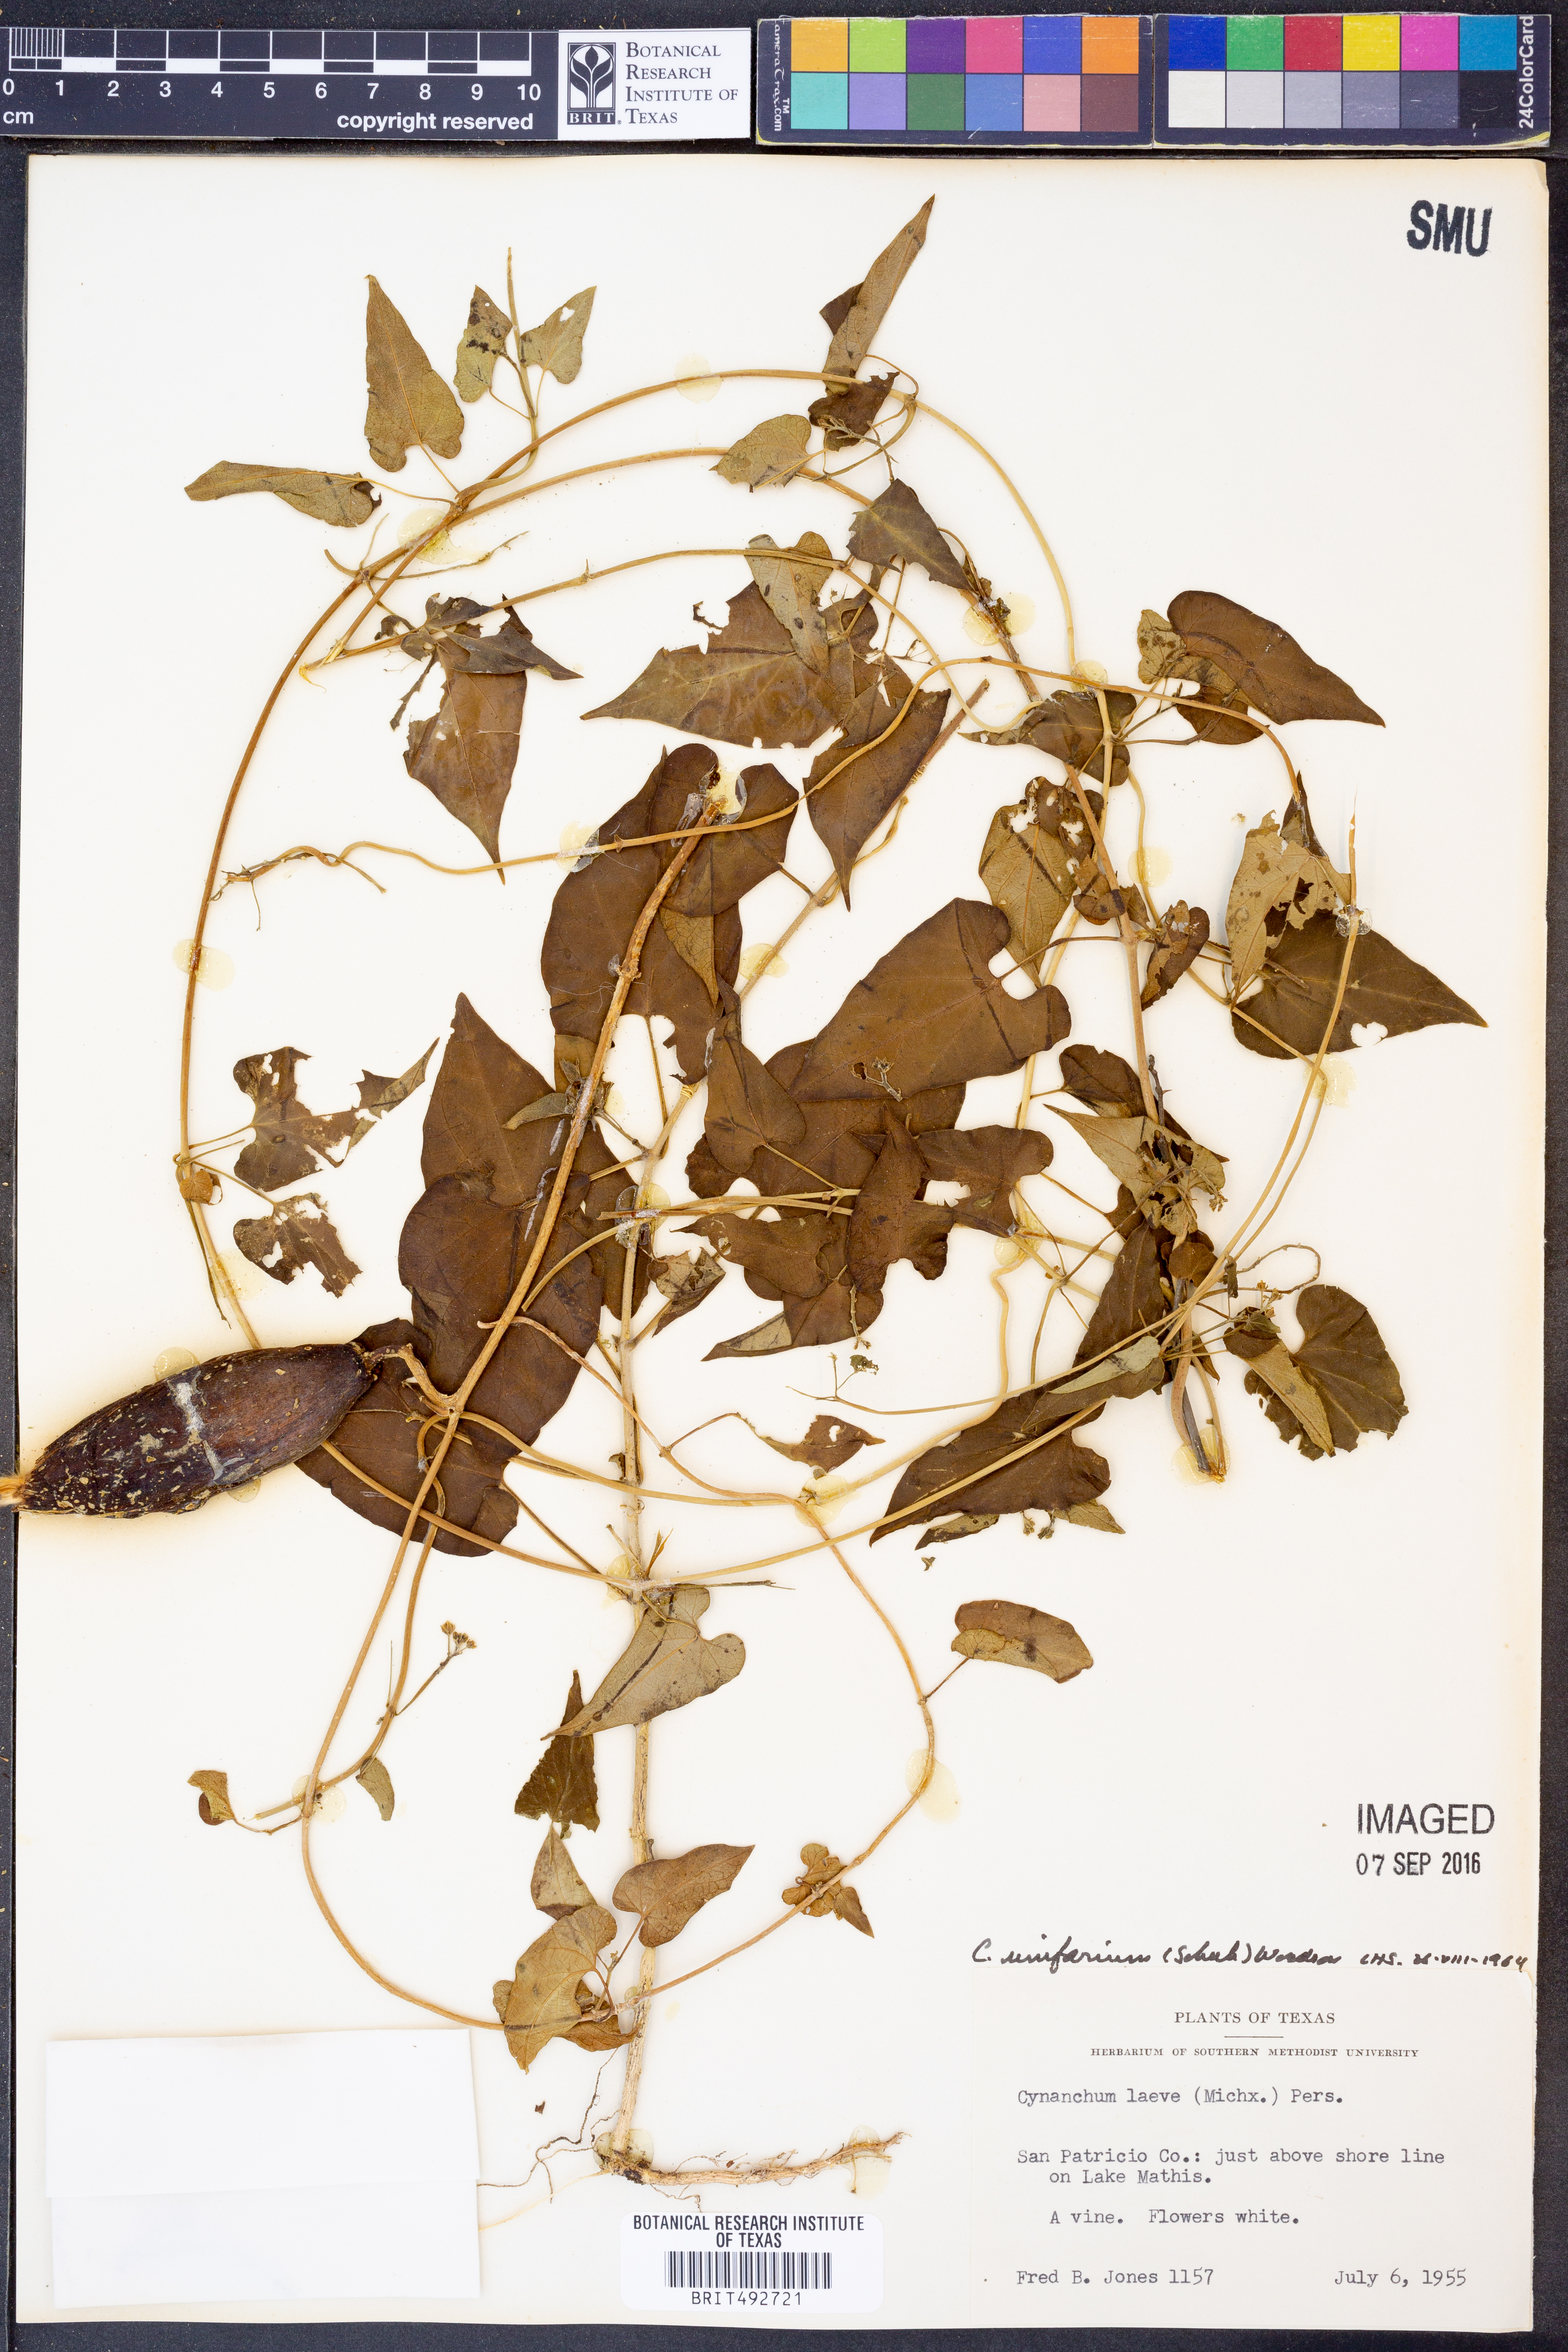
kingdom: Plantae
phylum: Tracheophyta
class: Magnoliopsida
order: Gentianales
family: Apocynaceae
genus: Cynanchum
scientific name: Cynanchum racemosum
